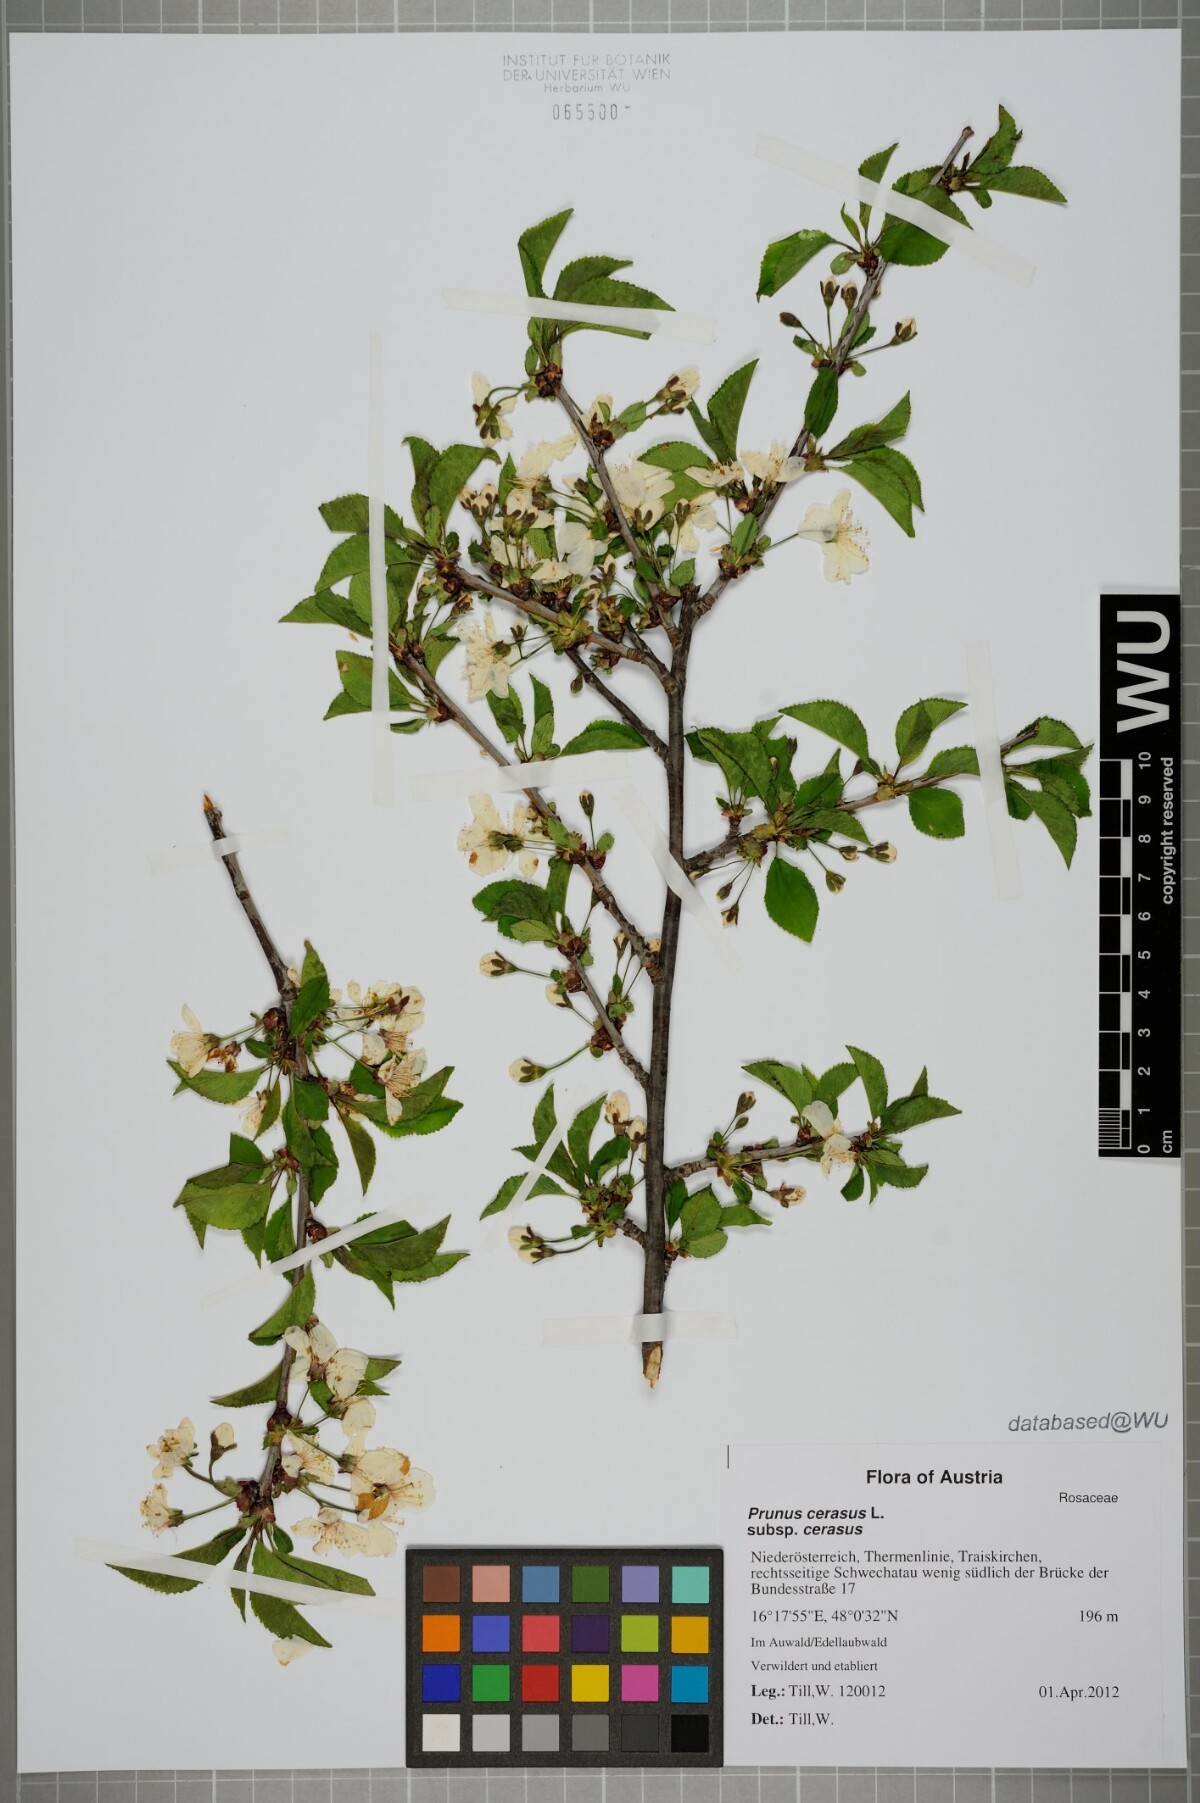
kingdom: Plantae
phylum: Tracheophyta
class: Magnoliopsida
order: Rosales
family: Rosaceae
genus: Prunus
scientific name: Prunus cerasus
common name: Morello cherry
